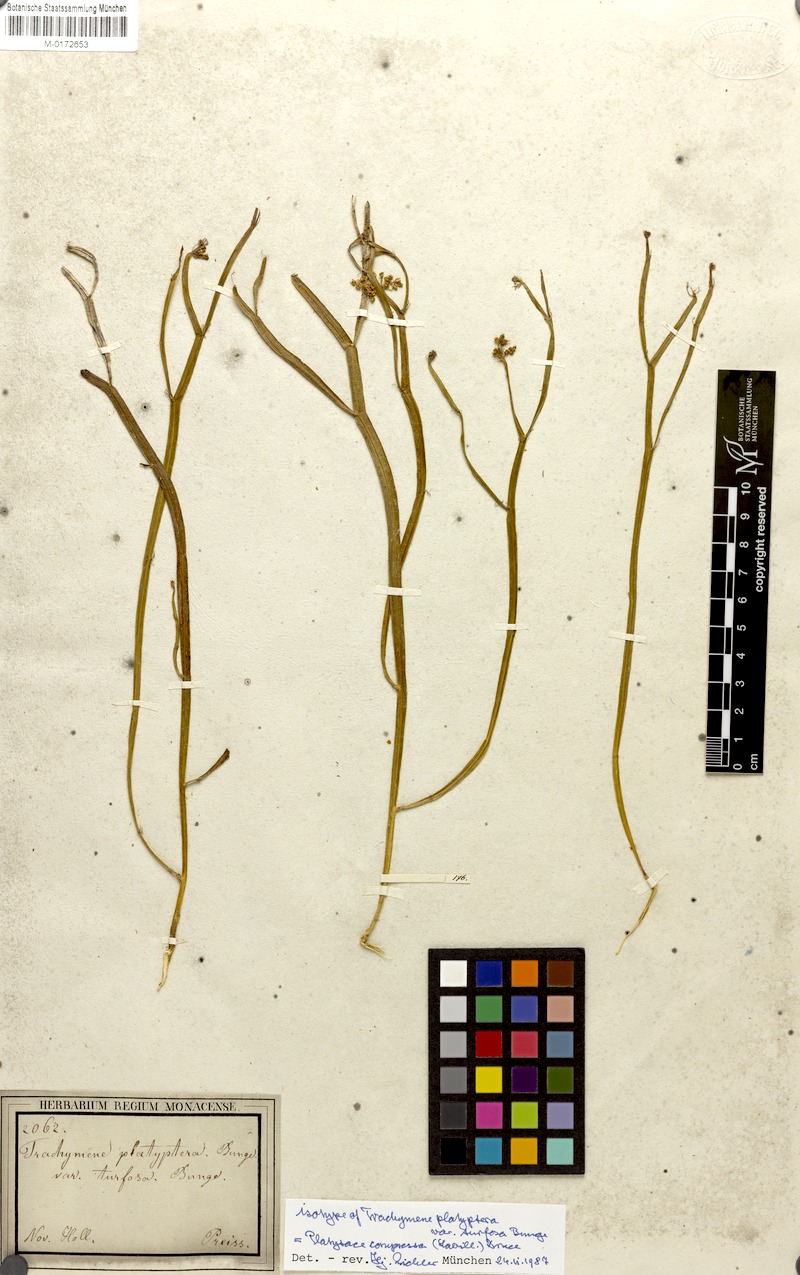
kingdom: Plantae
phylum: Tracheophyta
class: Magnoliopsida
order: Apiales
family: Apiaceae
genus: Platysace
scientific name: Platysace compressa
